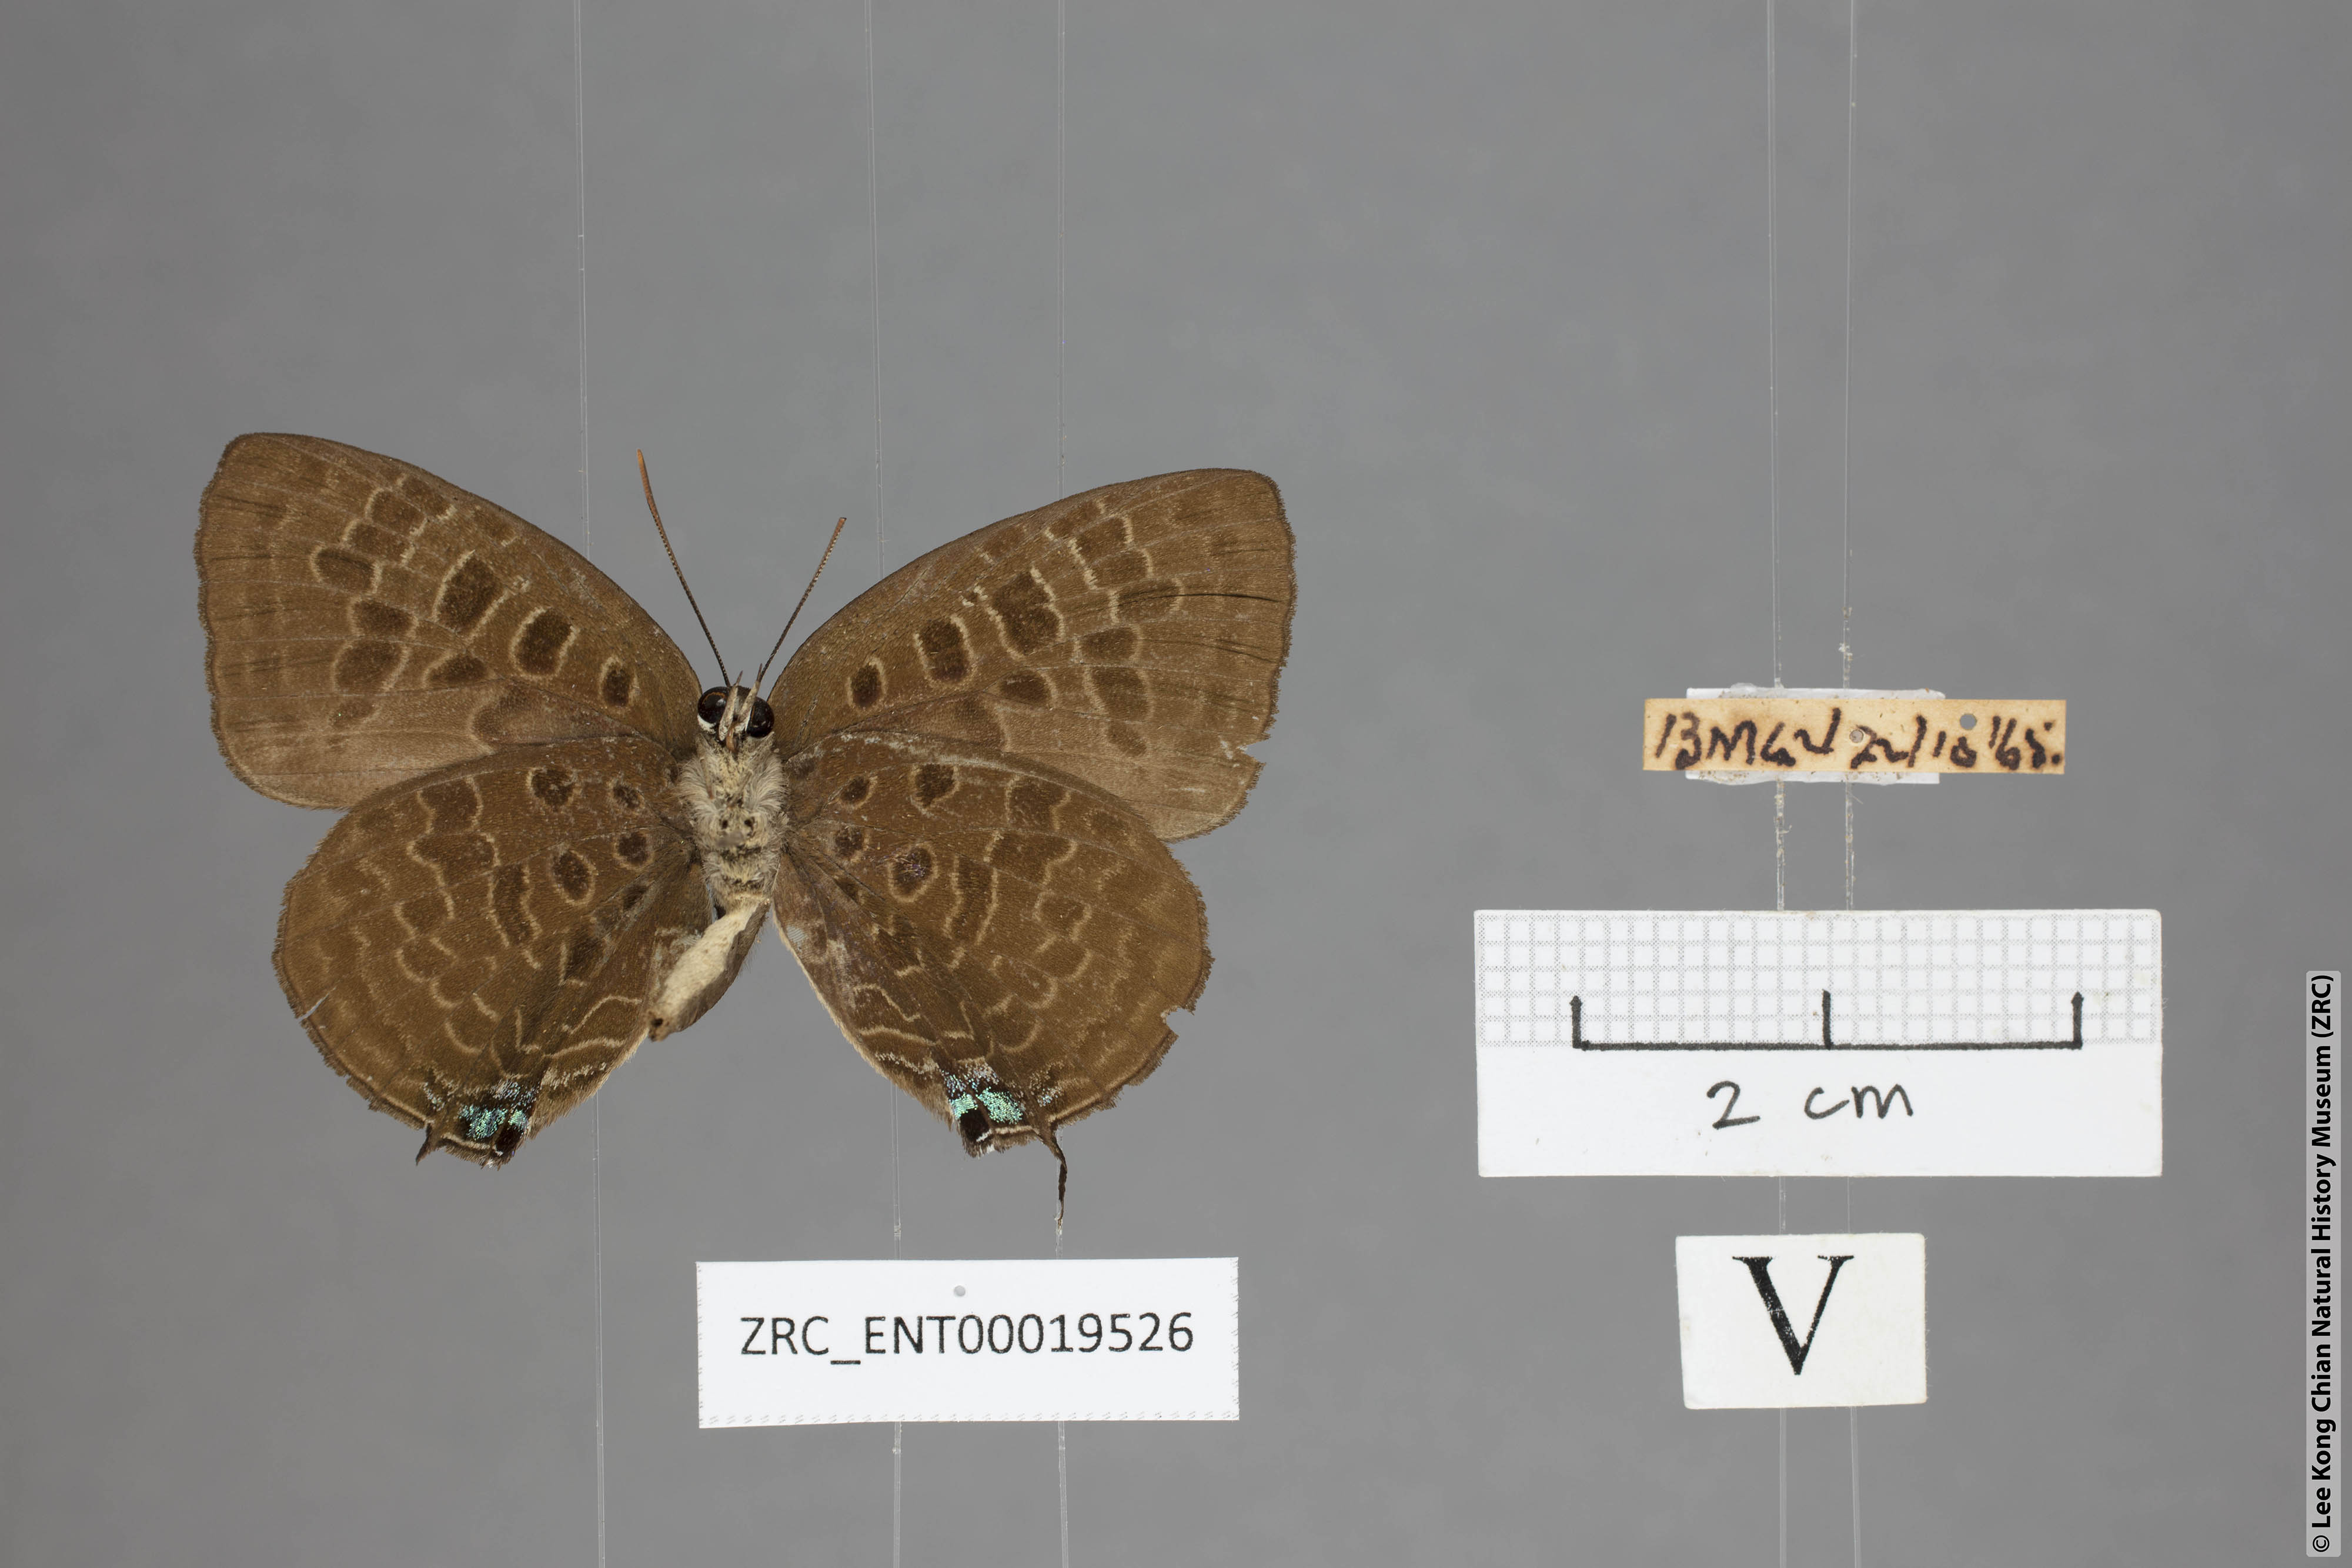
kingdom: Animalia
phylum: Arthropoda
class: Insecta
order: Lepidoptera
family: Lycaenidae
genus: Arhopala
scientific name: Arhopala horsfieldi
